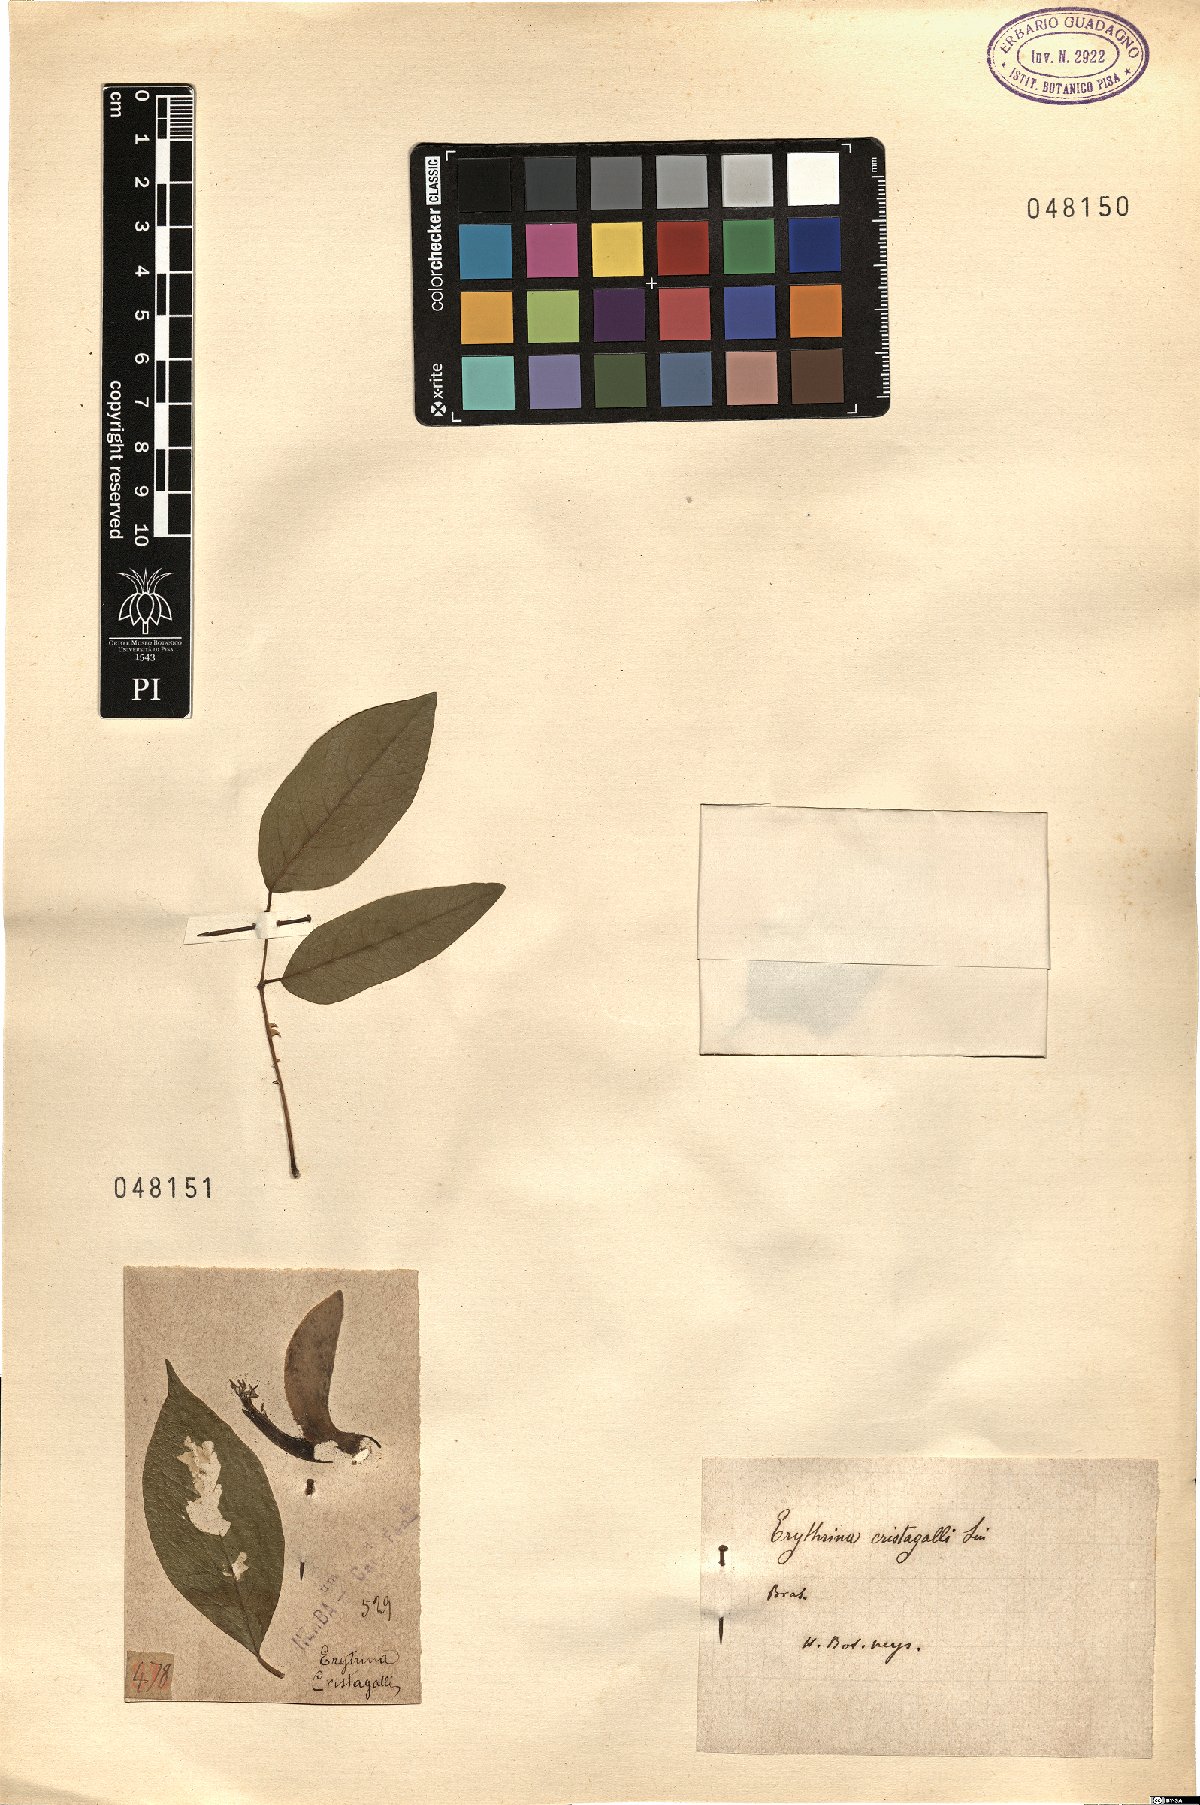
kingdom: Plantae
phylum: Tracheophyta
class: Magnoliopsida
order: Fabales
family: Fabaceae
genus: Erythrina
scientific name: Erythrina crista-galli
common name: Cockspur coral tree
